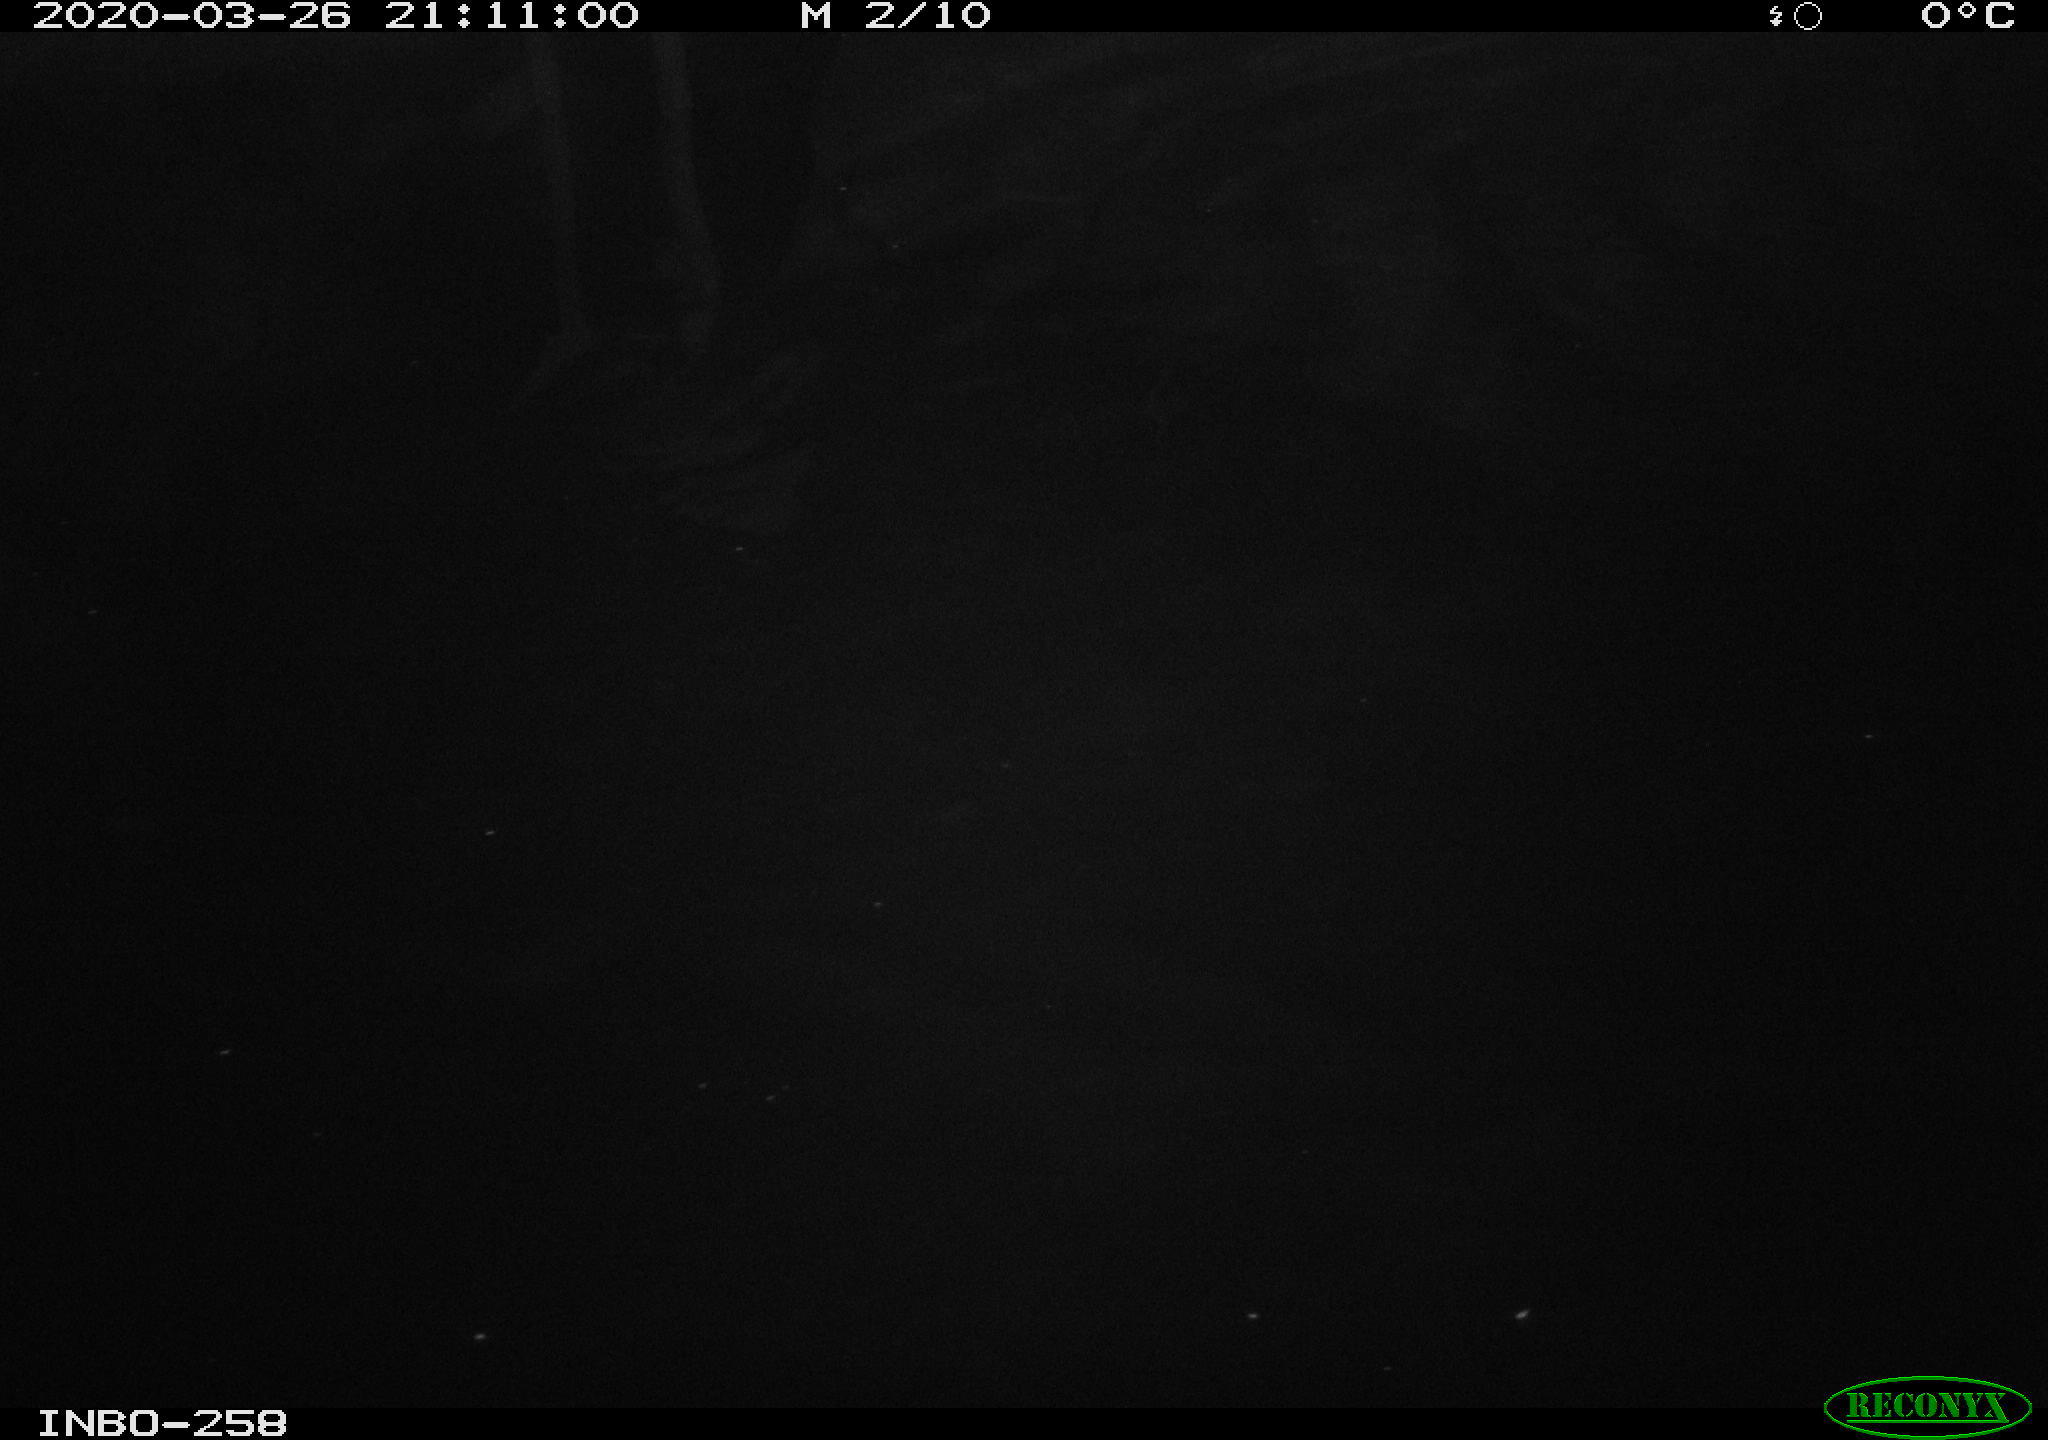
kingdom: Animalia
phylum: Chordata
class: Aves
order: Anseriformes
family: Anatidae
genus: Anas
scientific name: Anas platyrhynchos
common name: Mallard
